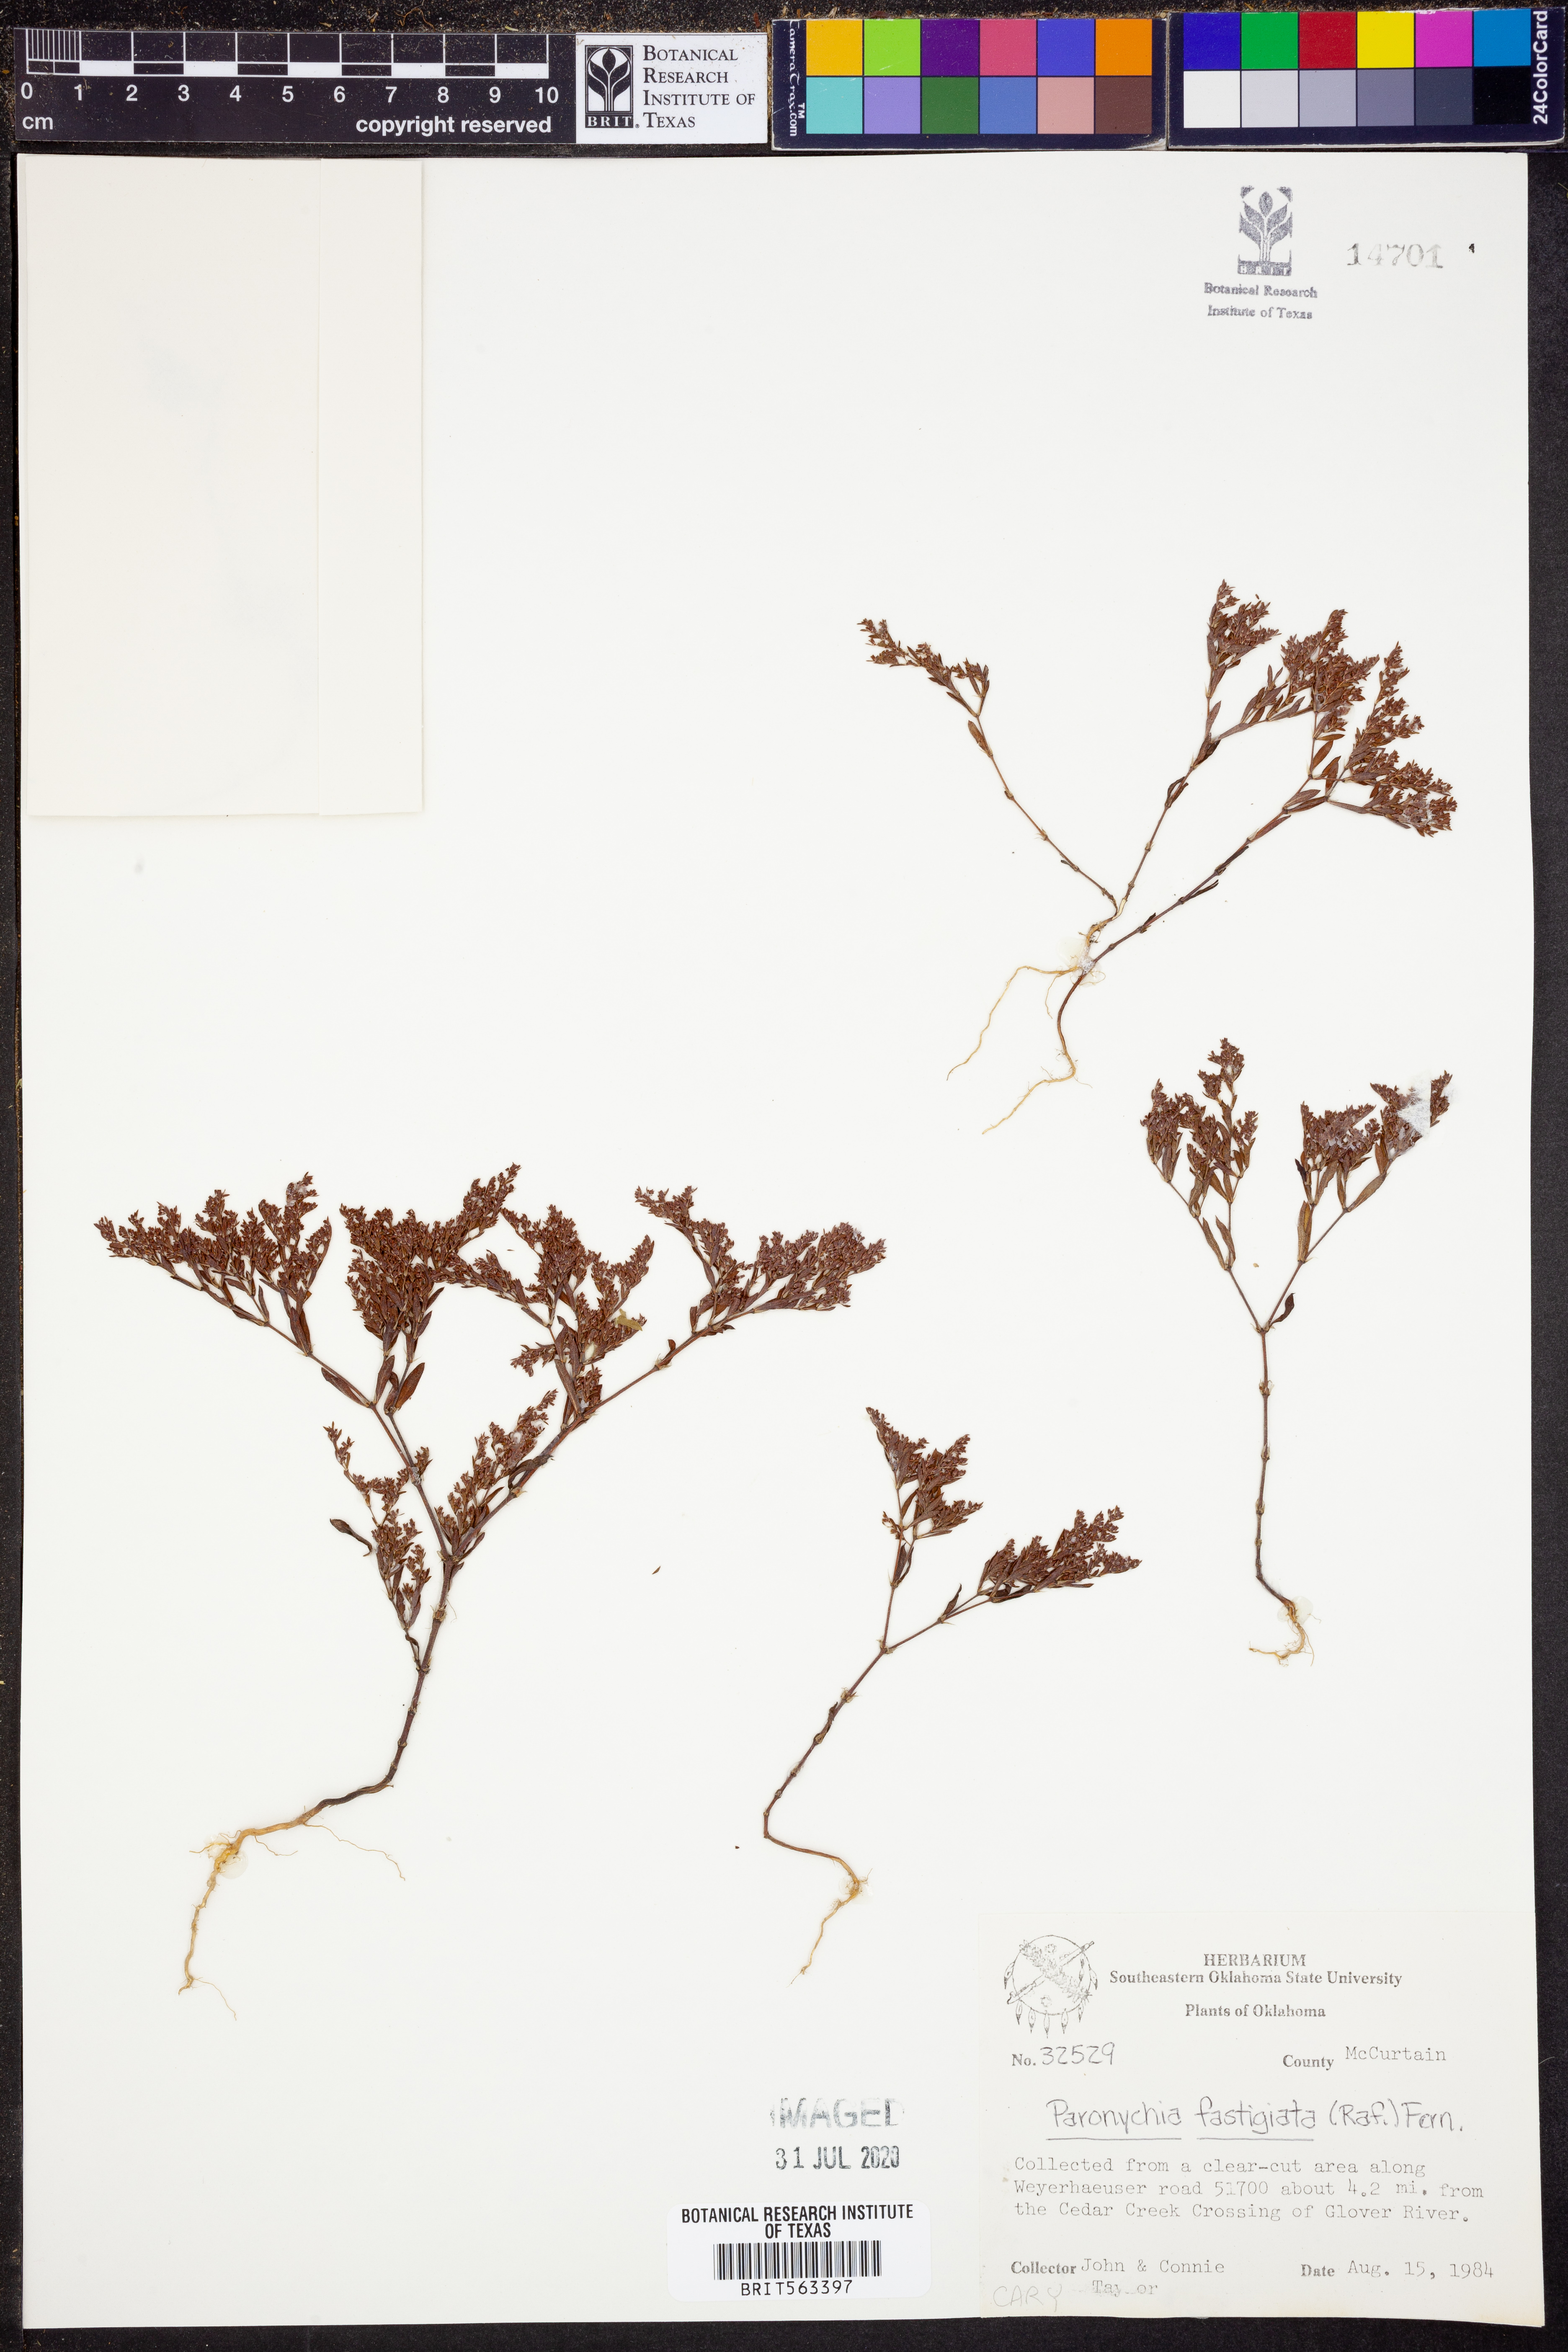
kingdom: Plantae
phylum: Tracheophyta
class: Magnoliopsida
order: Caryophyllales
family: Caryophyllaceae
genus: Paronychia
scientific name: Paronychia fastigiata
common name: Branching forked whitlow-wort
